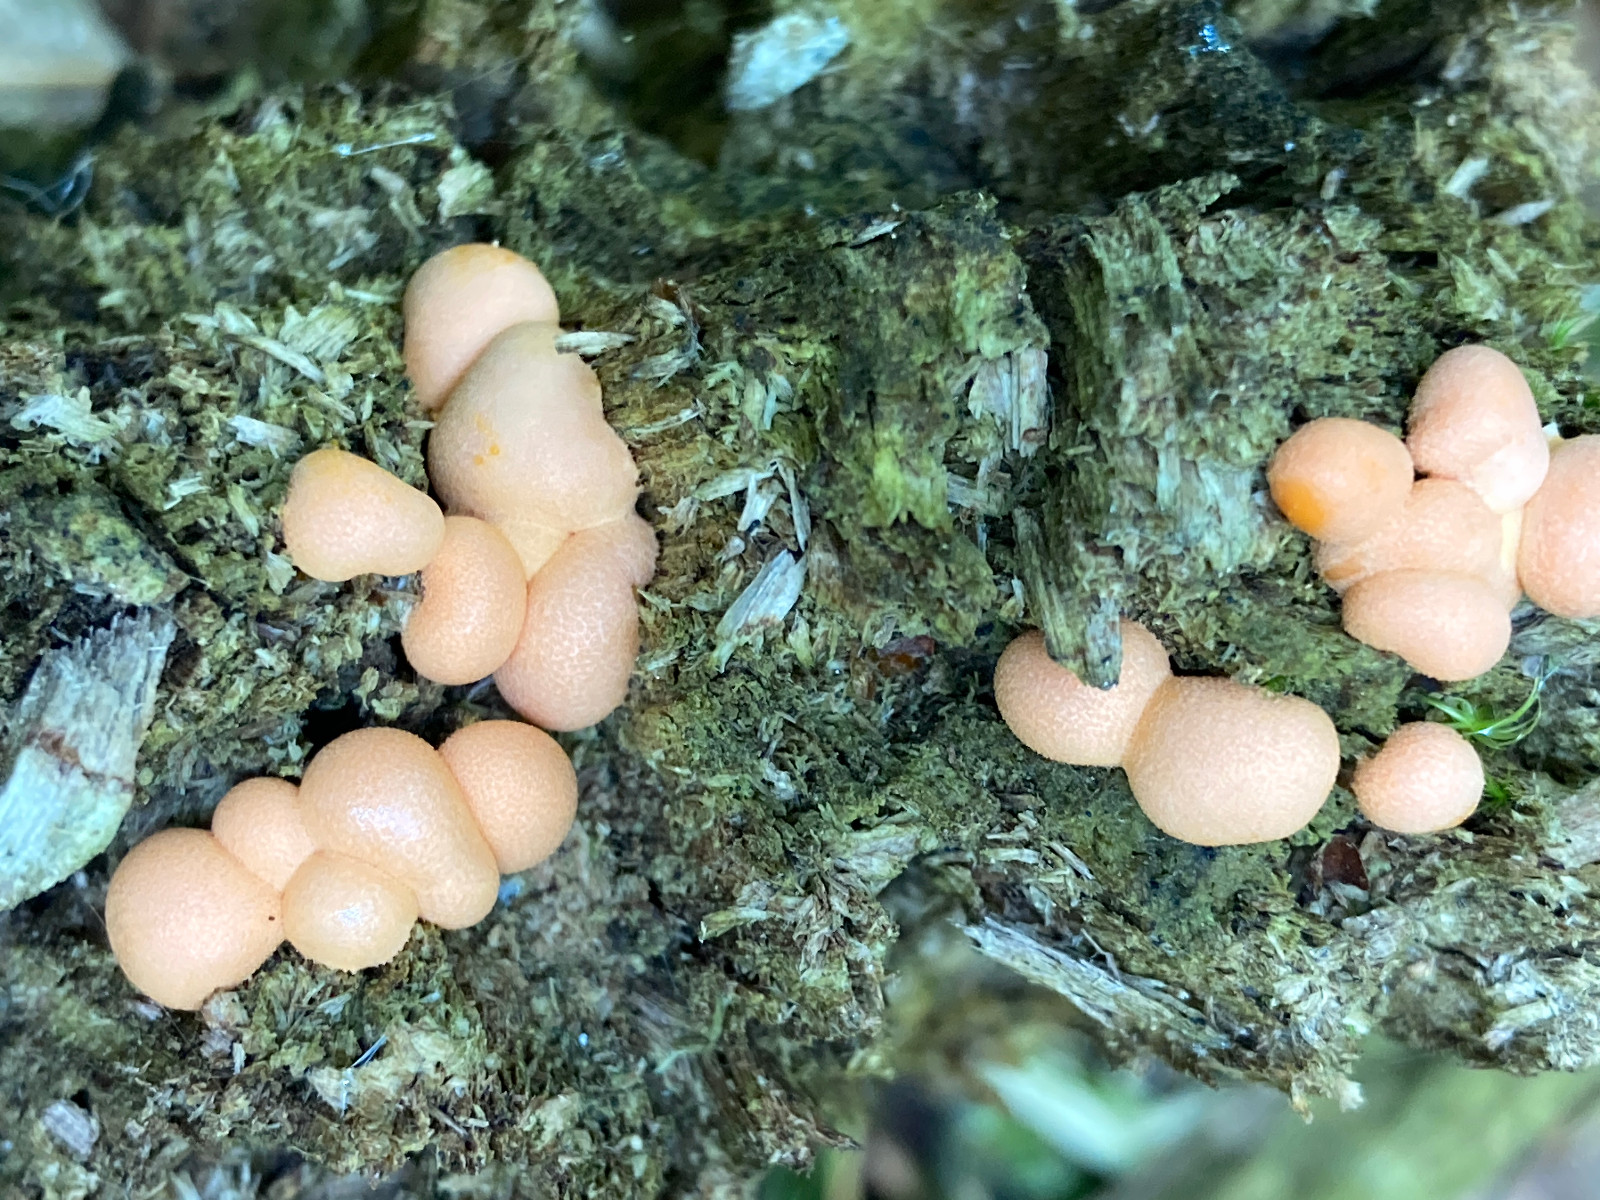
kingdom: Protozoa
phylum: Mycetozoa
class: Myxomycetes
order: Cribrariales
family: Tubiferaceae
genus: Lycogala
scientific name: Lycogala epidendrum
